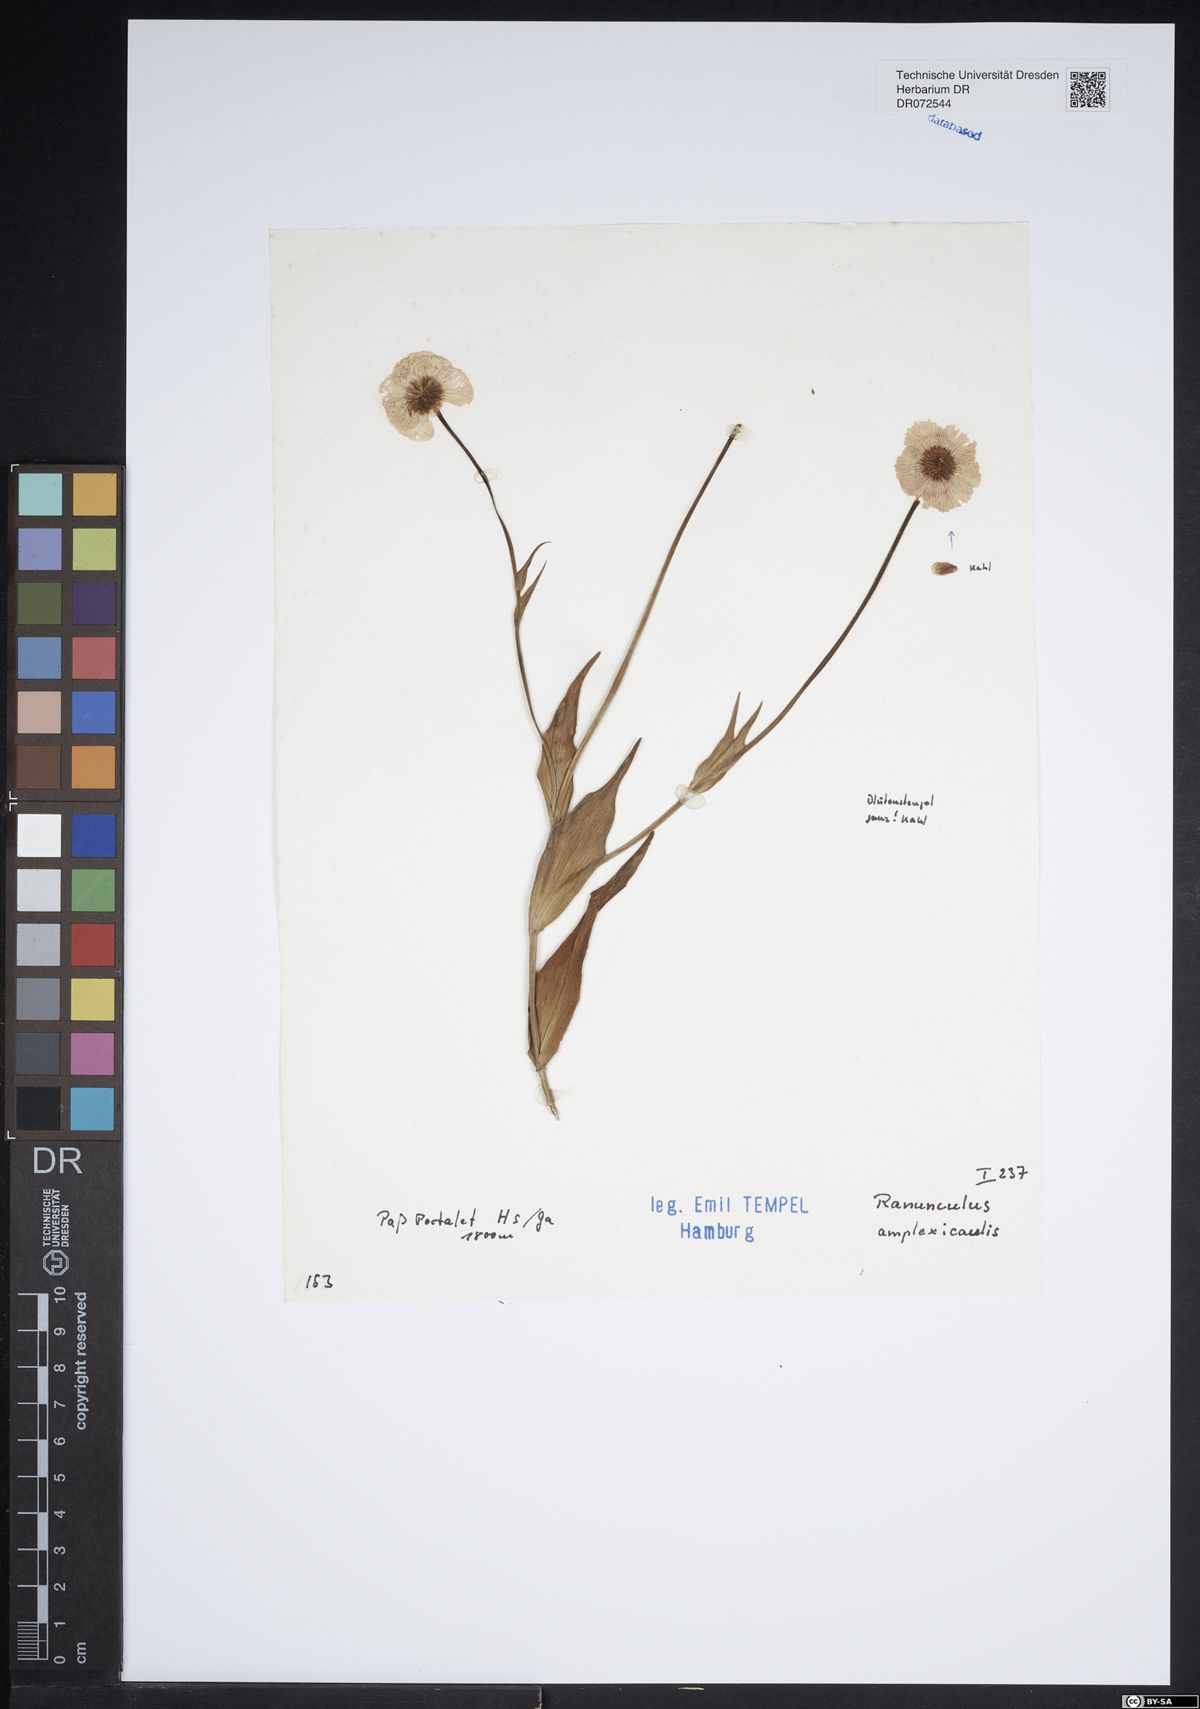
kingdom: Plantae
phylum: Tracheophyta
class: Magnoliopsida
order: Ranunculales
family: Ranunculaceae
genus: Ranunculus
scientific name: Ranunculus amplexicaulis
